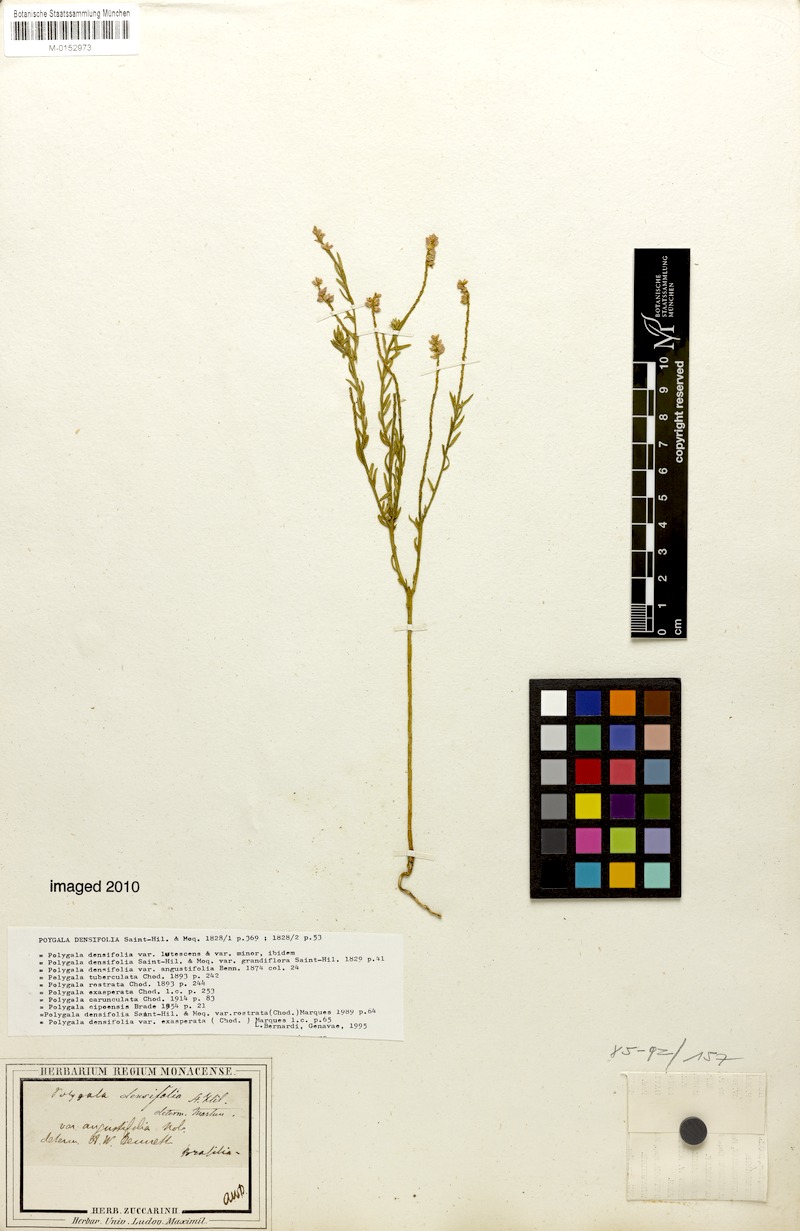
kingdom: Plantae
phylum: Tracheophyta
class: Magnoliopsida
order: Fabales
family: Polygalaceae
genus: Polygala
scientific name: Polygala densifolia
